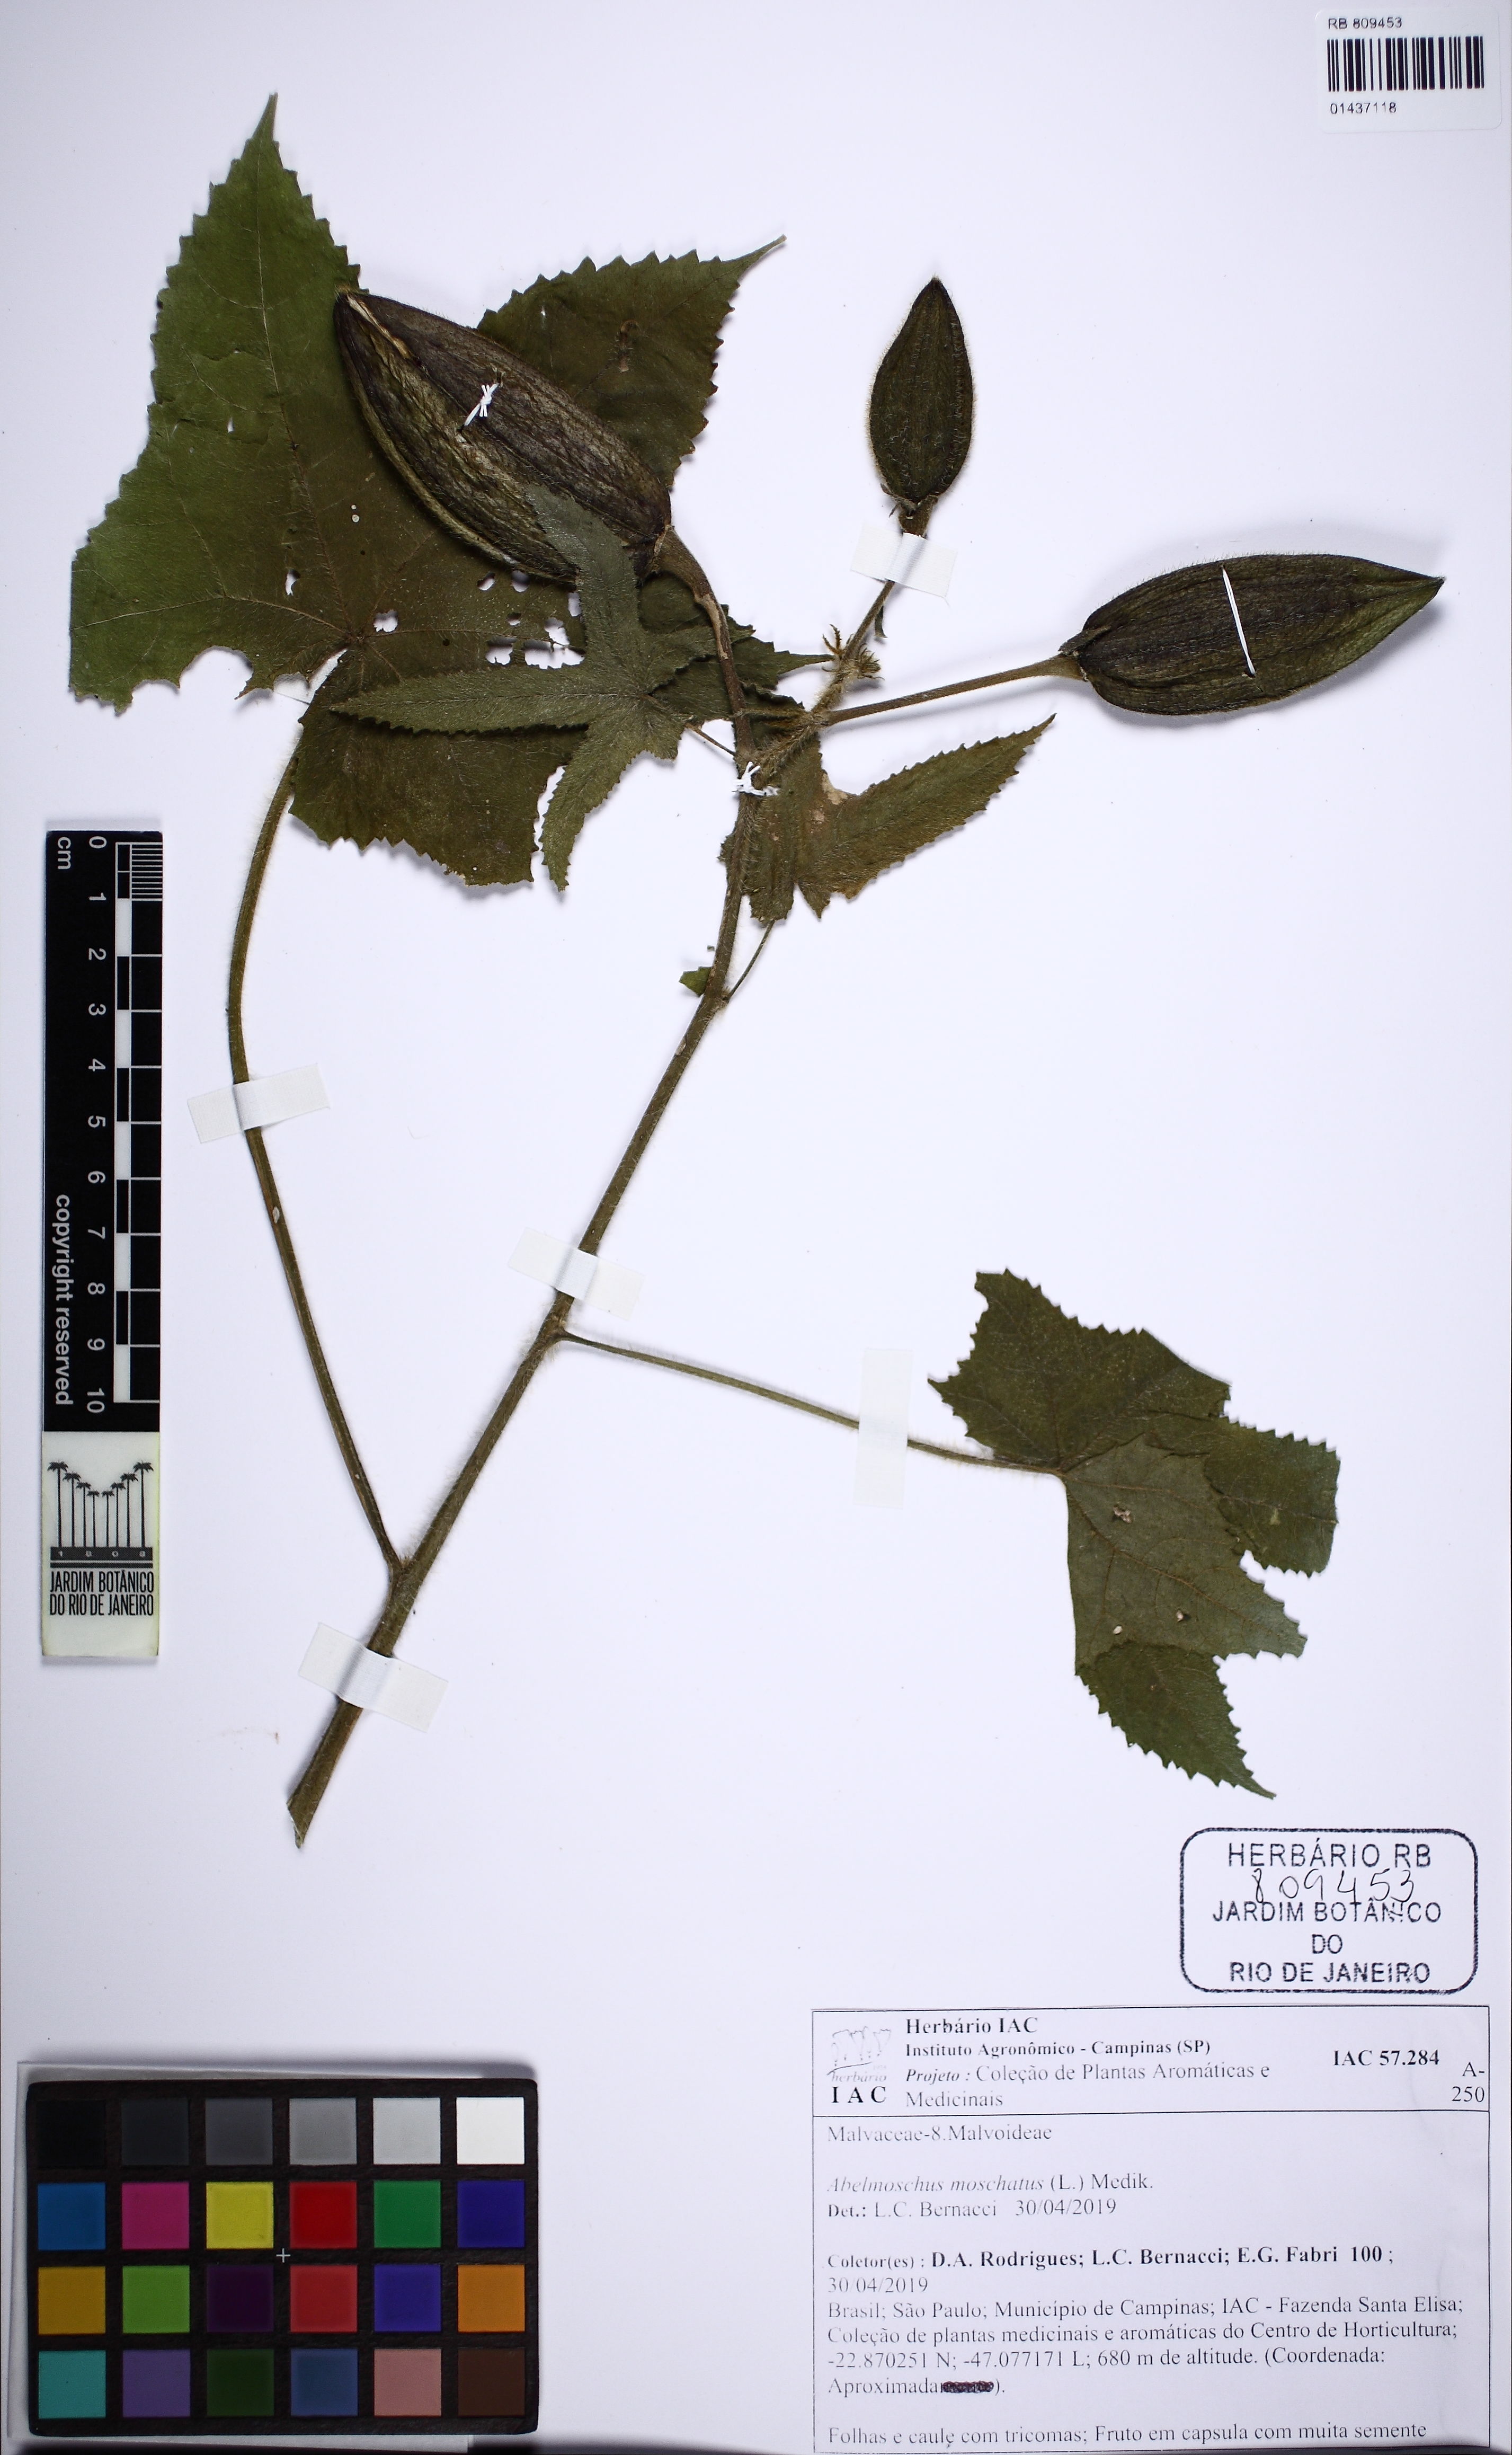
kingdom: Plantae
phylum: Tracheophyta
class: Magnoliopsida
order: Malvales
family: Malvaceae
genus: Abelmoschus
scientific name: Abelmoschus moschatus
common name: Musk okra
